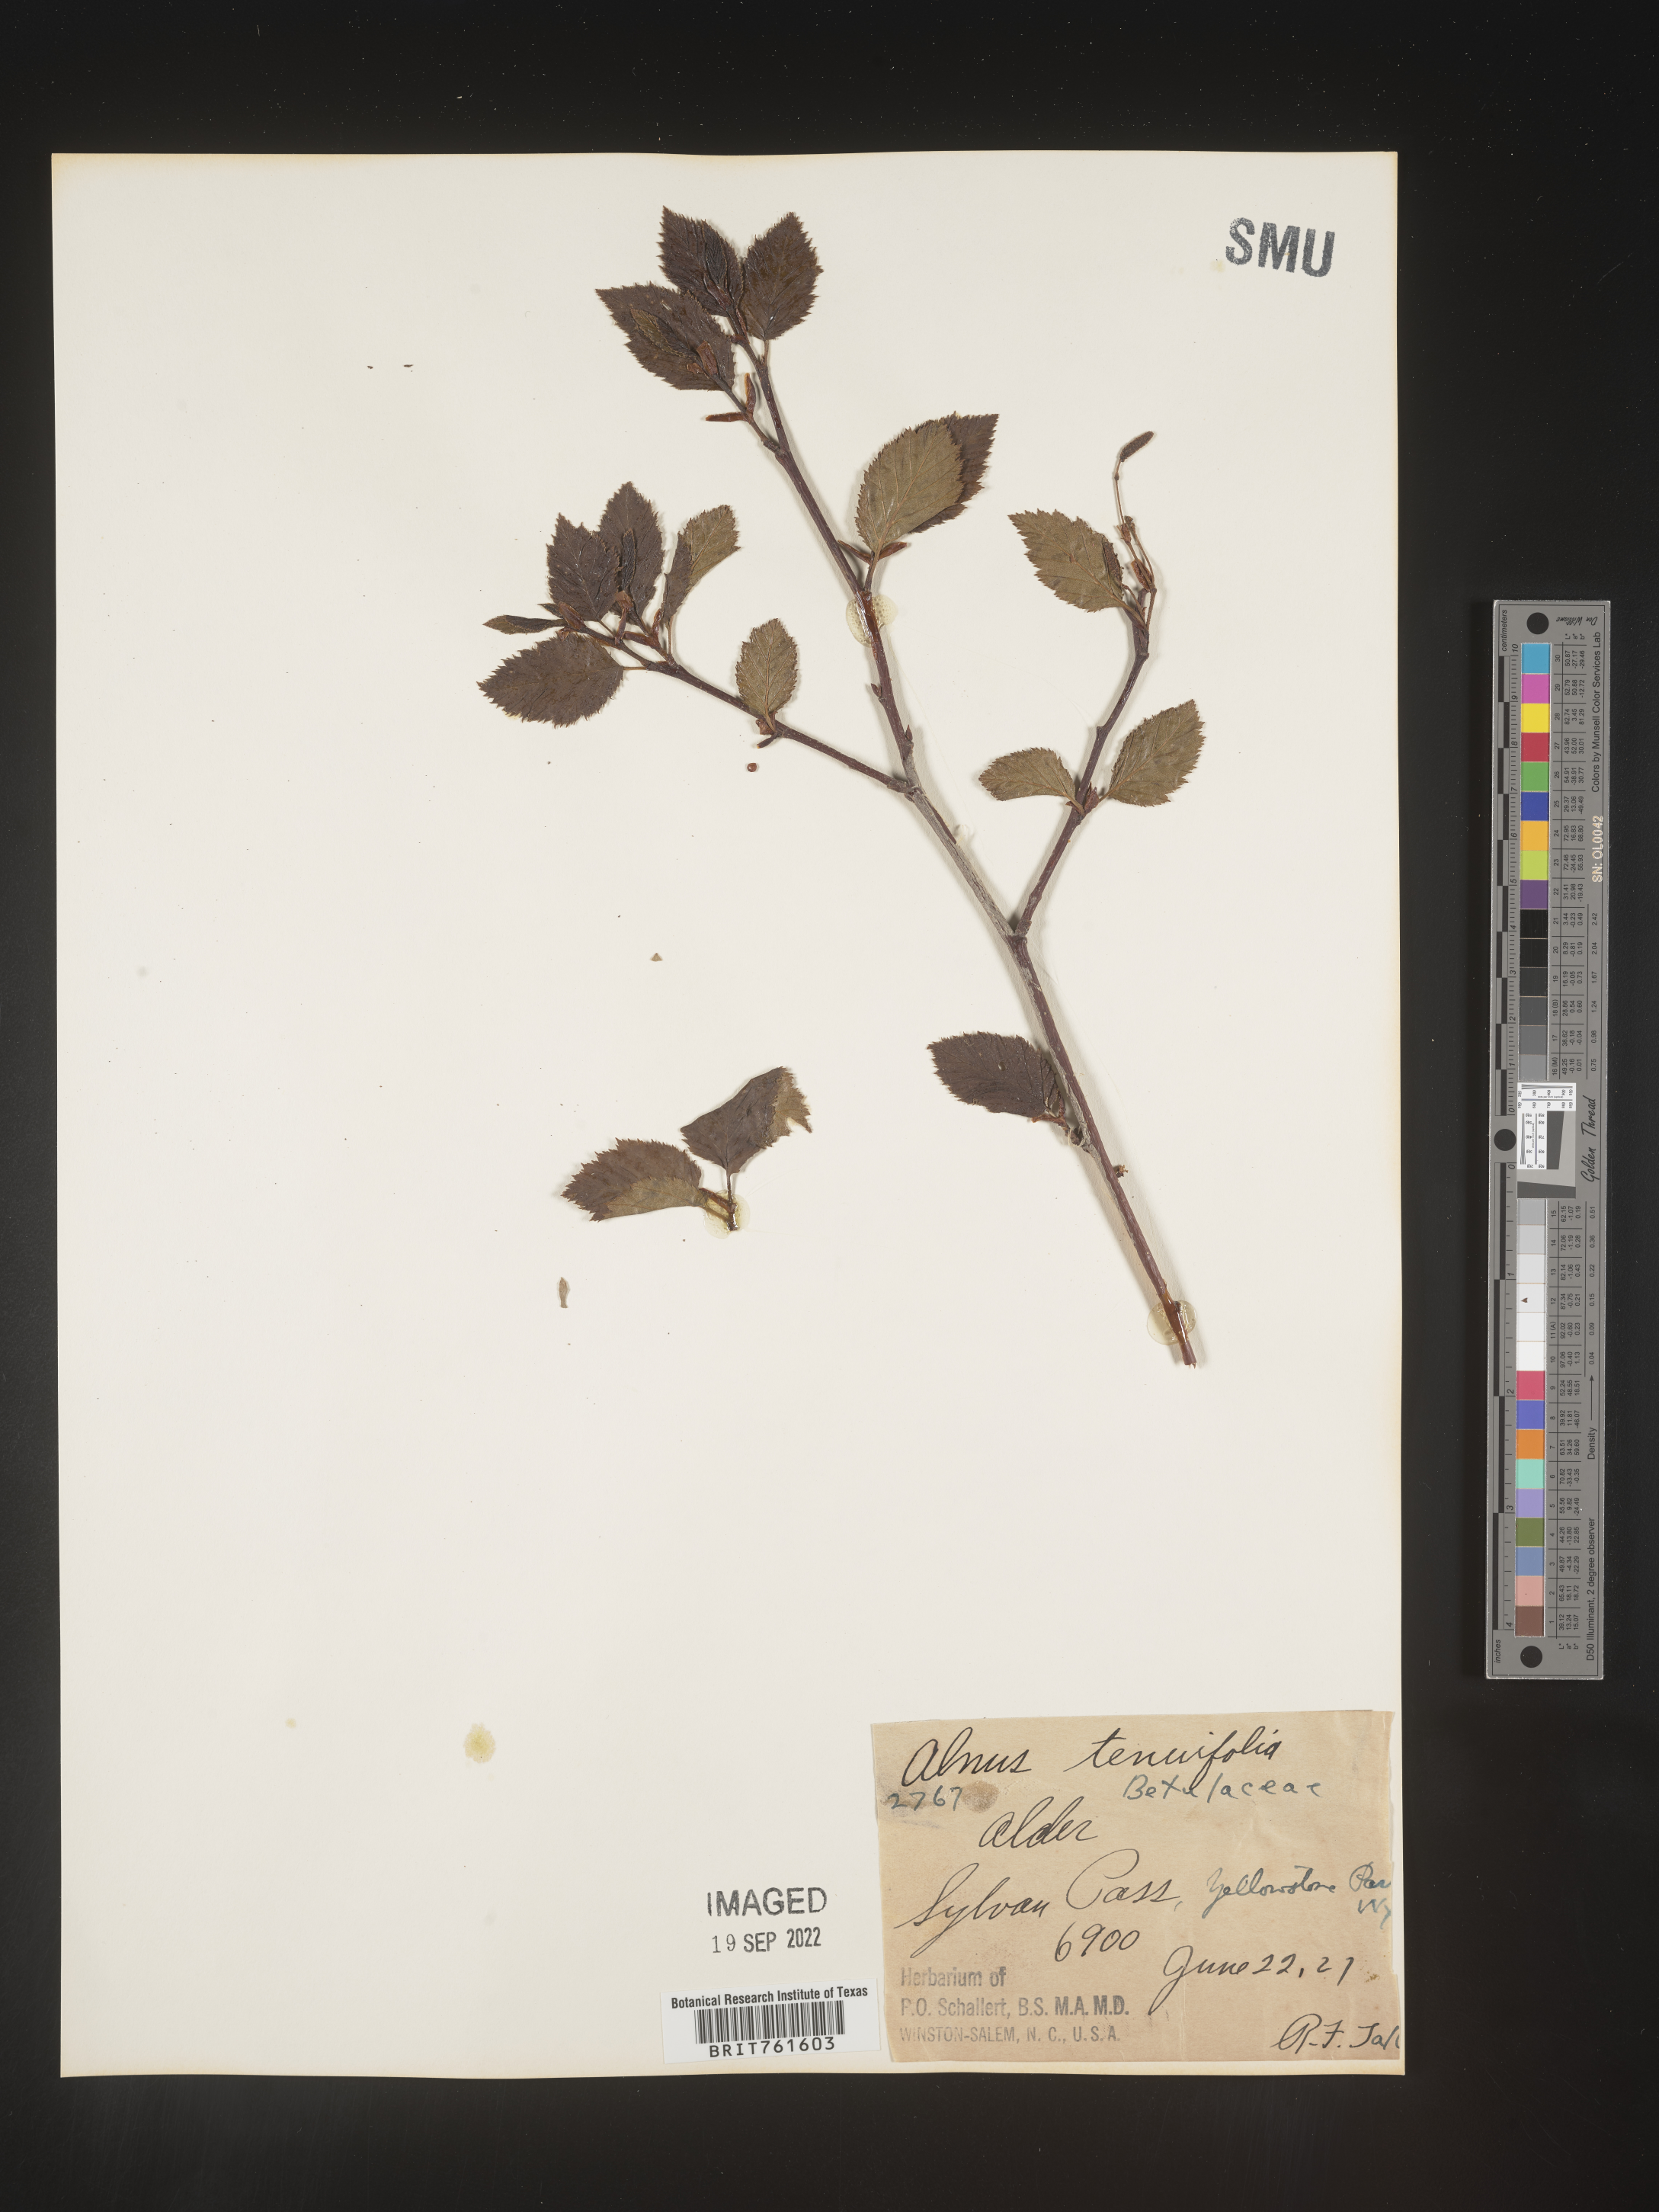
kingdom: Plantae
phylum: Tracheophyta
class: Magnoliopsida
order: Fagales
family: Betulaceae
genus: Alnus
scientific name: Alnus incana
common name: Grey alder
